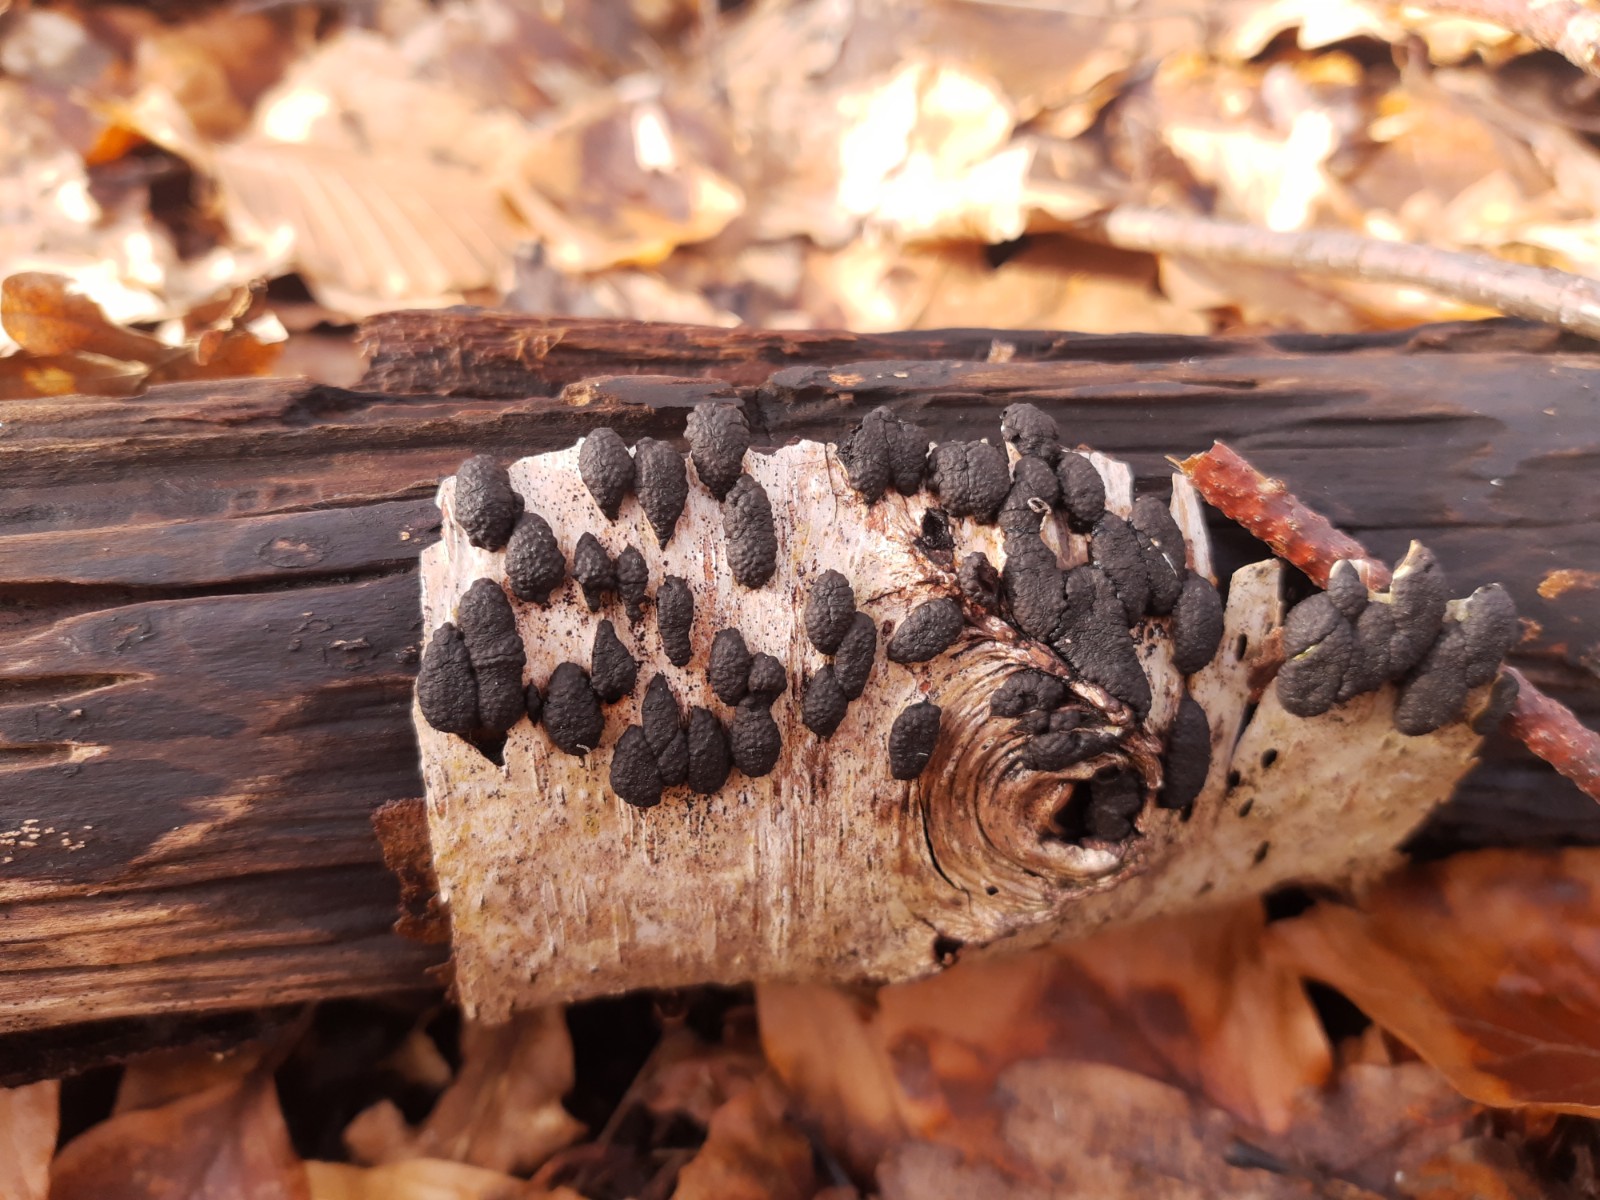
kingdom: Fungi
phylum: Ascomycota
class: Sordariomycetes
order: Xylariales
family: Hypoxylaceae
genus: Jackrogersella
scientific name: Jackrogersella multiformis
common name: foranderlig kulbær
